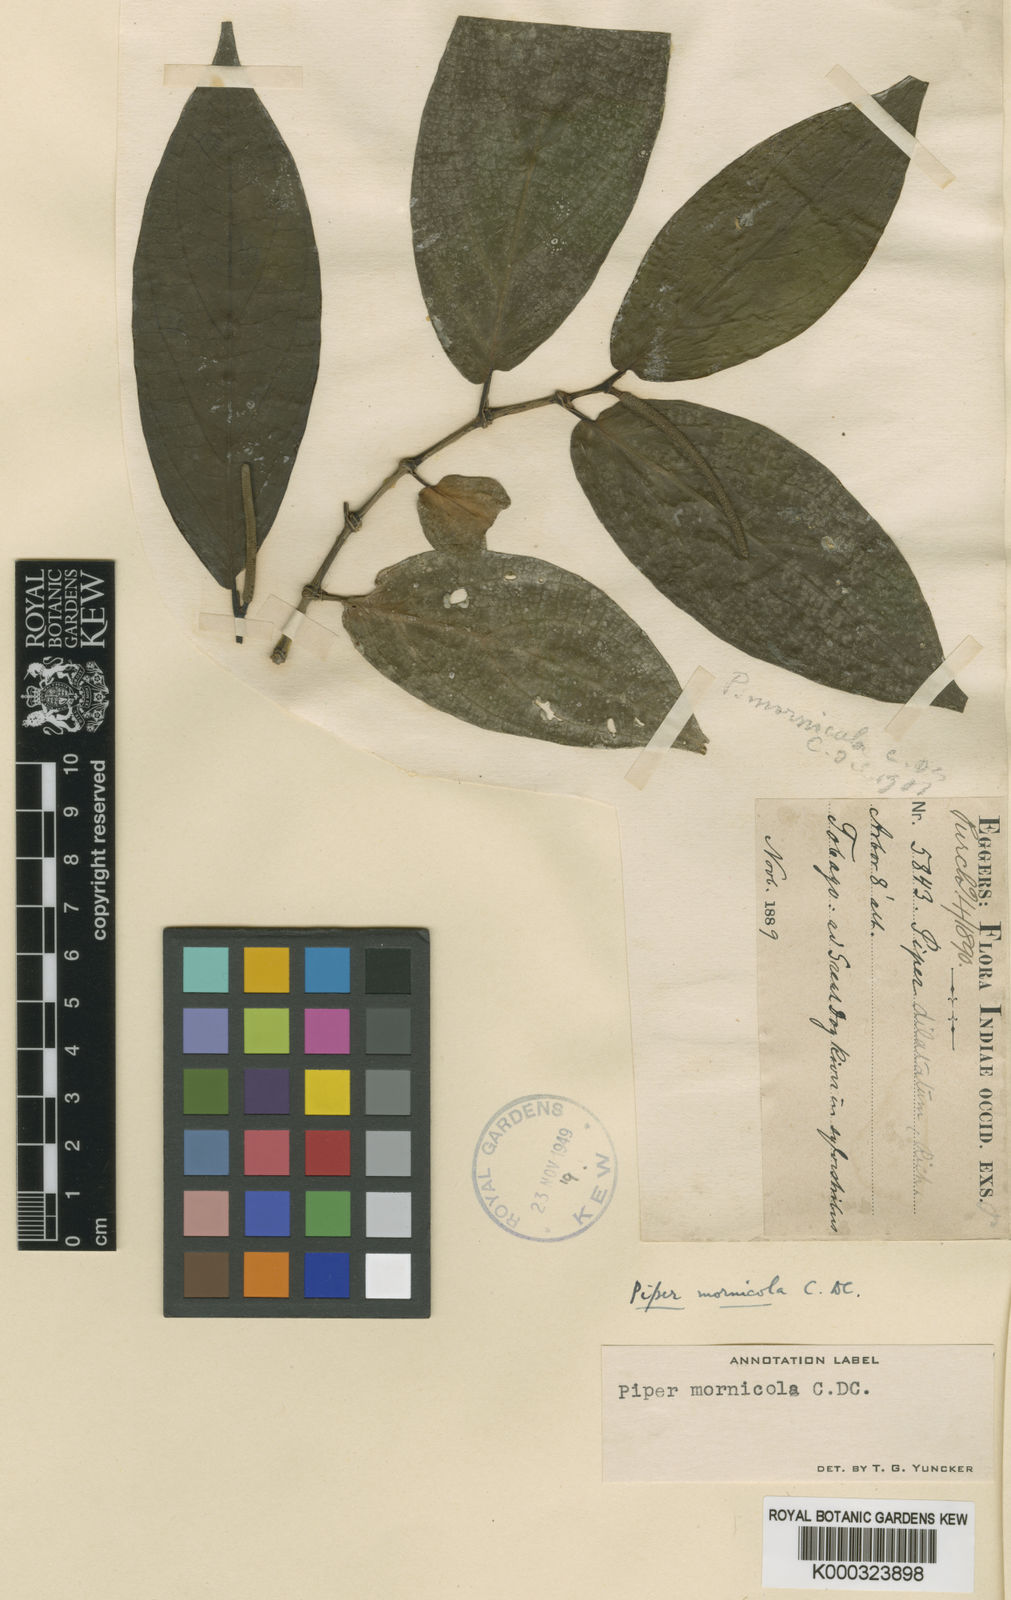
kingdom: Plantae
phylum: Tracheophyta
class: Magnoliopsida
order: Piperales
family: Piperaceae
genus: Piper
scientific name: Piper mornicola
